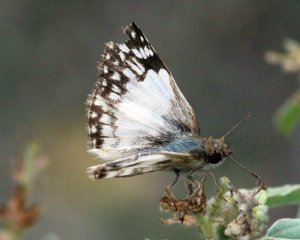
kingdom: Animalia
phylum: Arthropoda
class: Insecta
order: Lepidoptera
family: Hesperiidae
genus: Heliopetes
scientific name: Heliopetes sublinea
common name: East-Mexican White-Skipper
